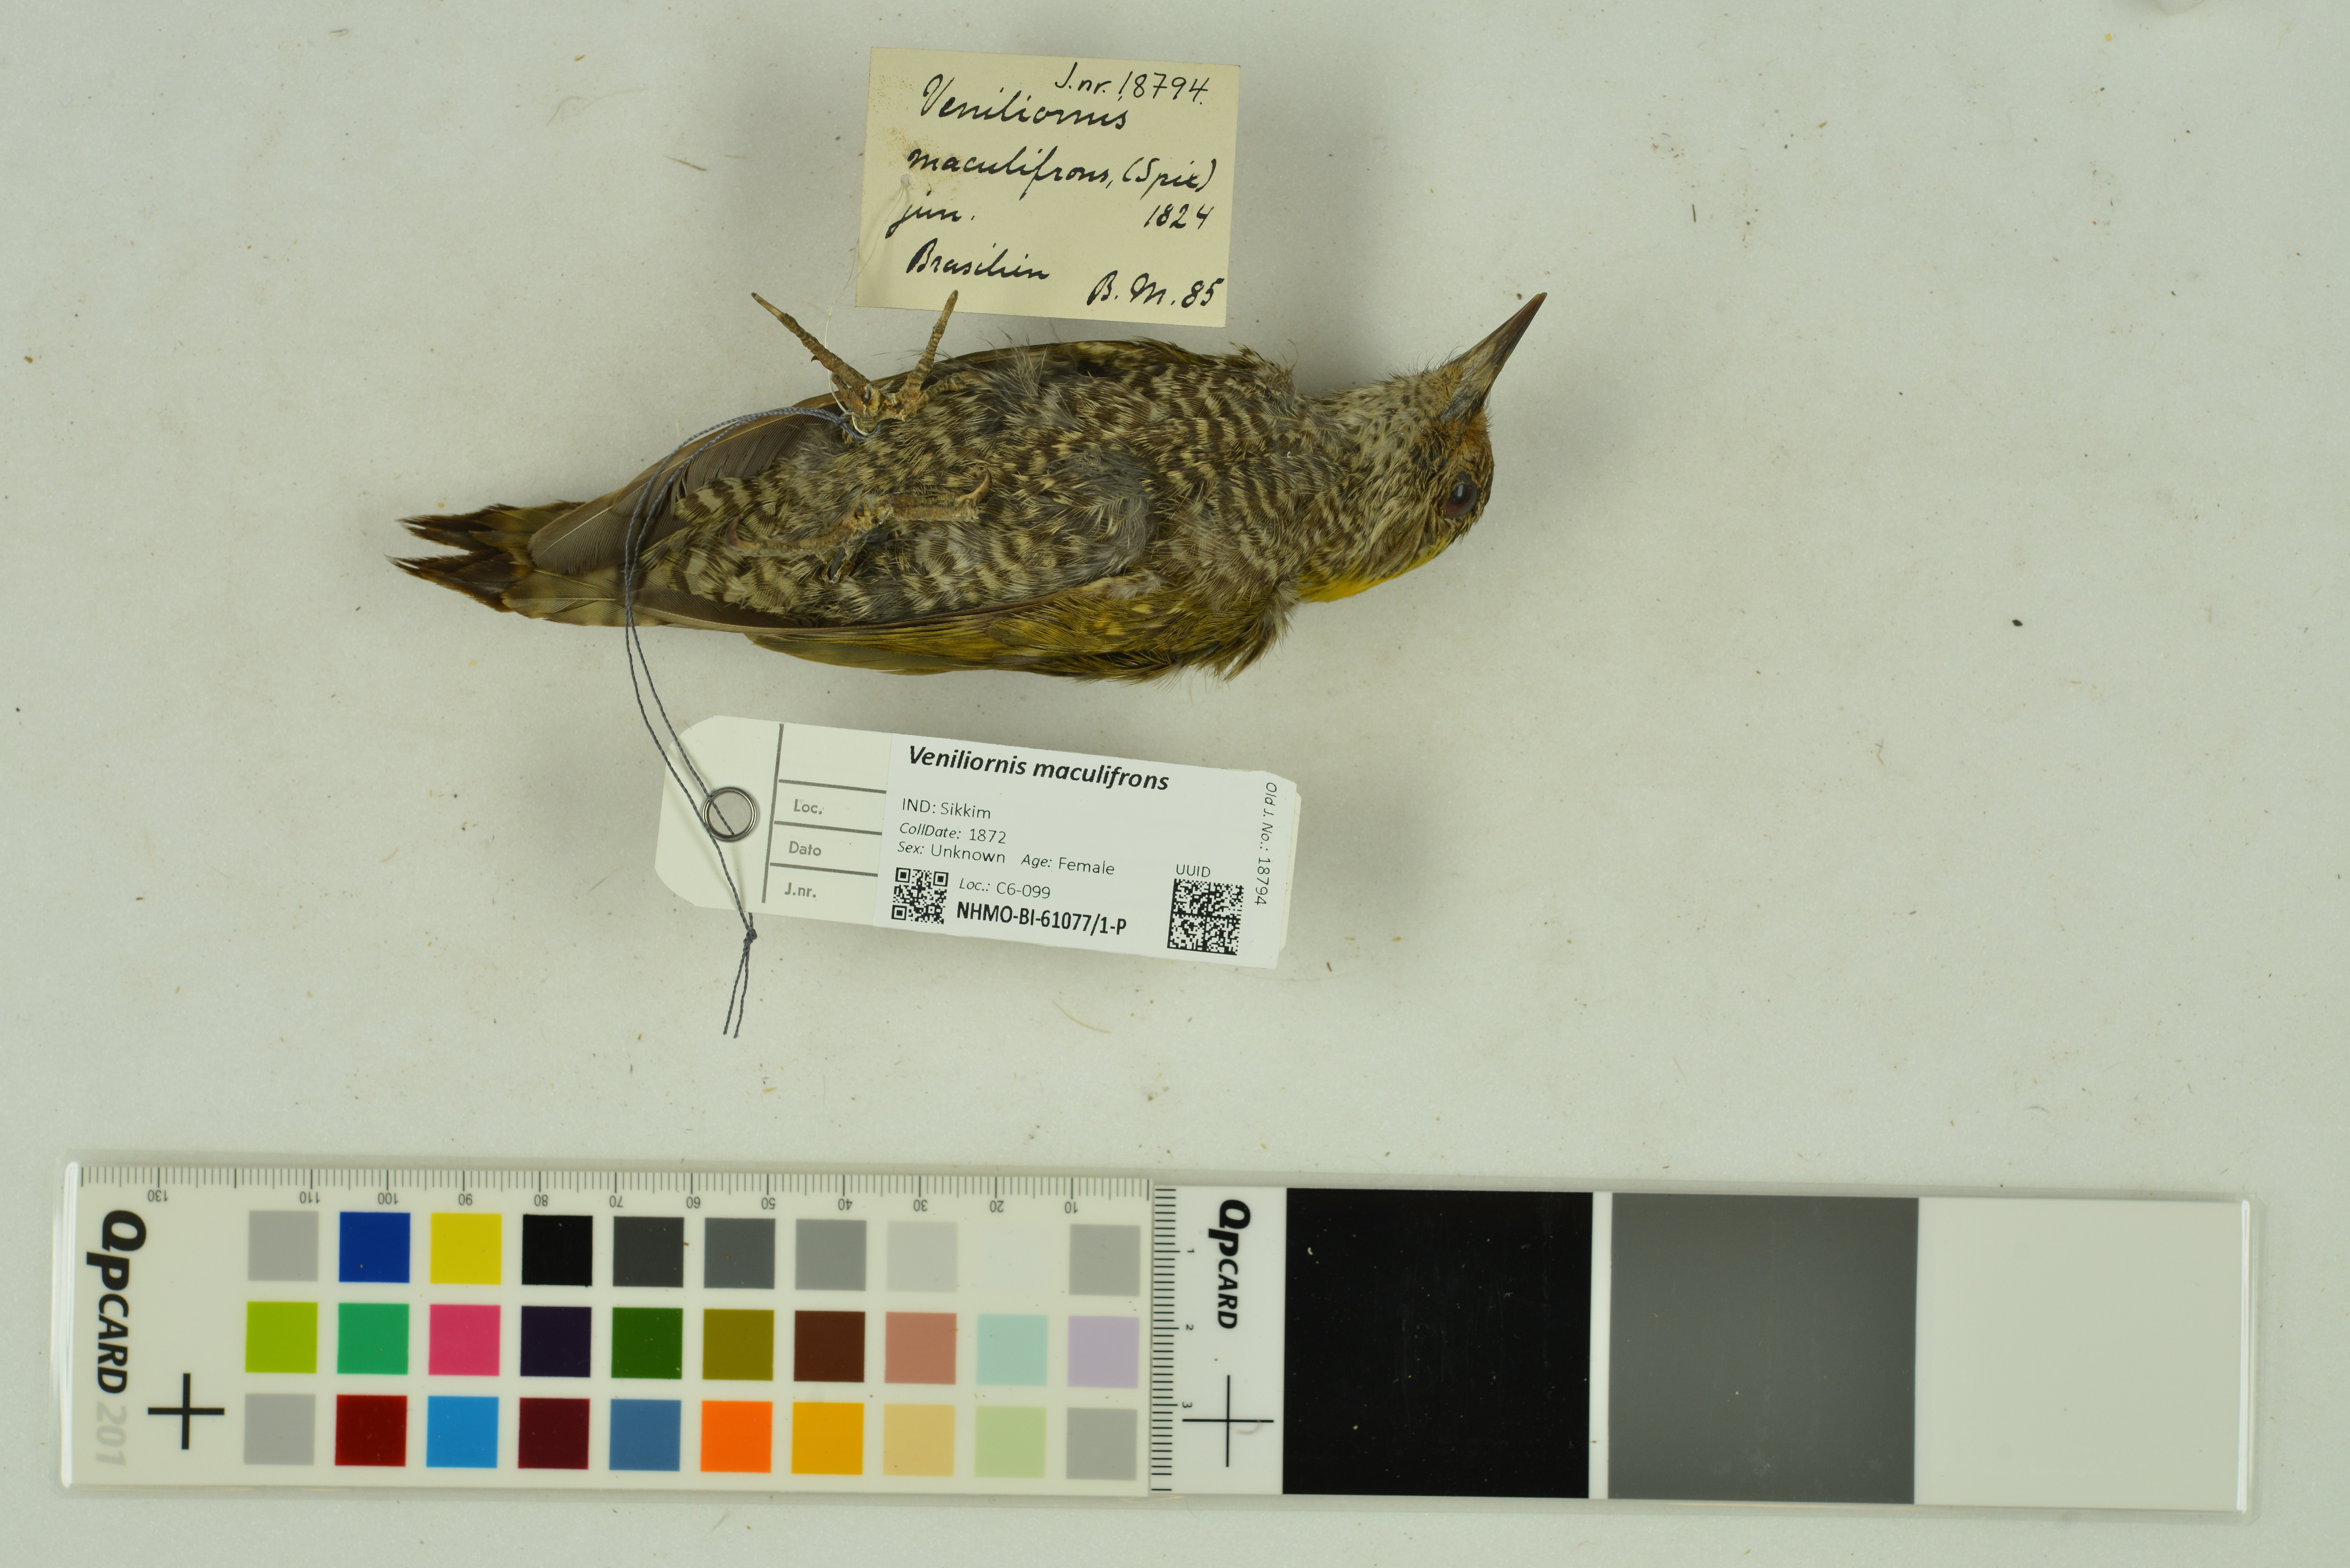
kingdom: Animalia
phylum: Chordata
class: Aves
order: Piciformes
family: Picidae
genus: Veniliornis
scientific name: Veniliornis maculifrons
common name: Yellow-eared woodpecker
